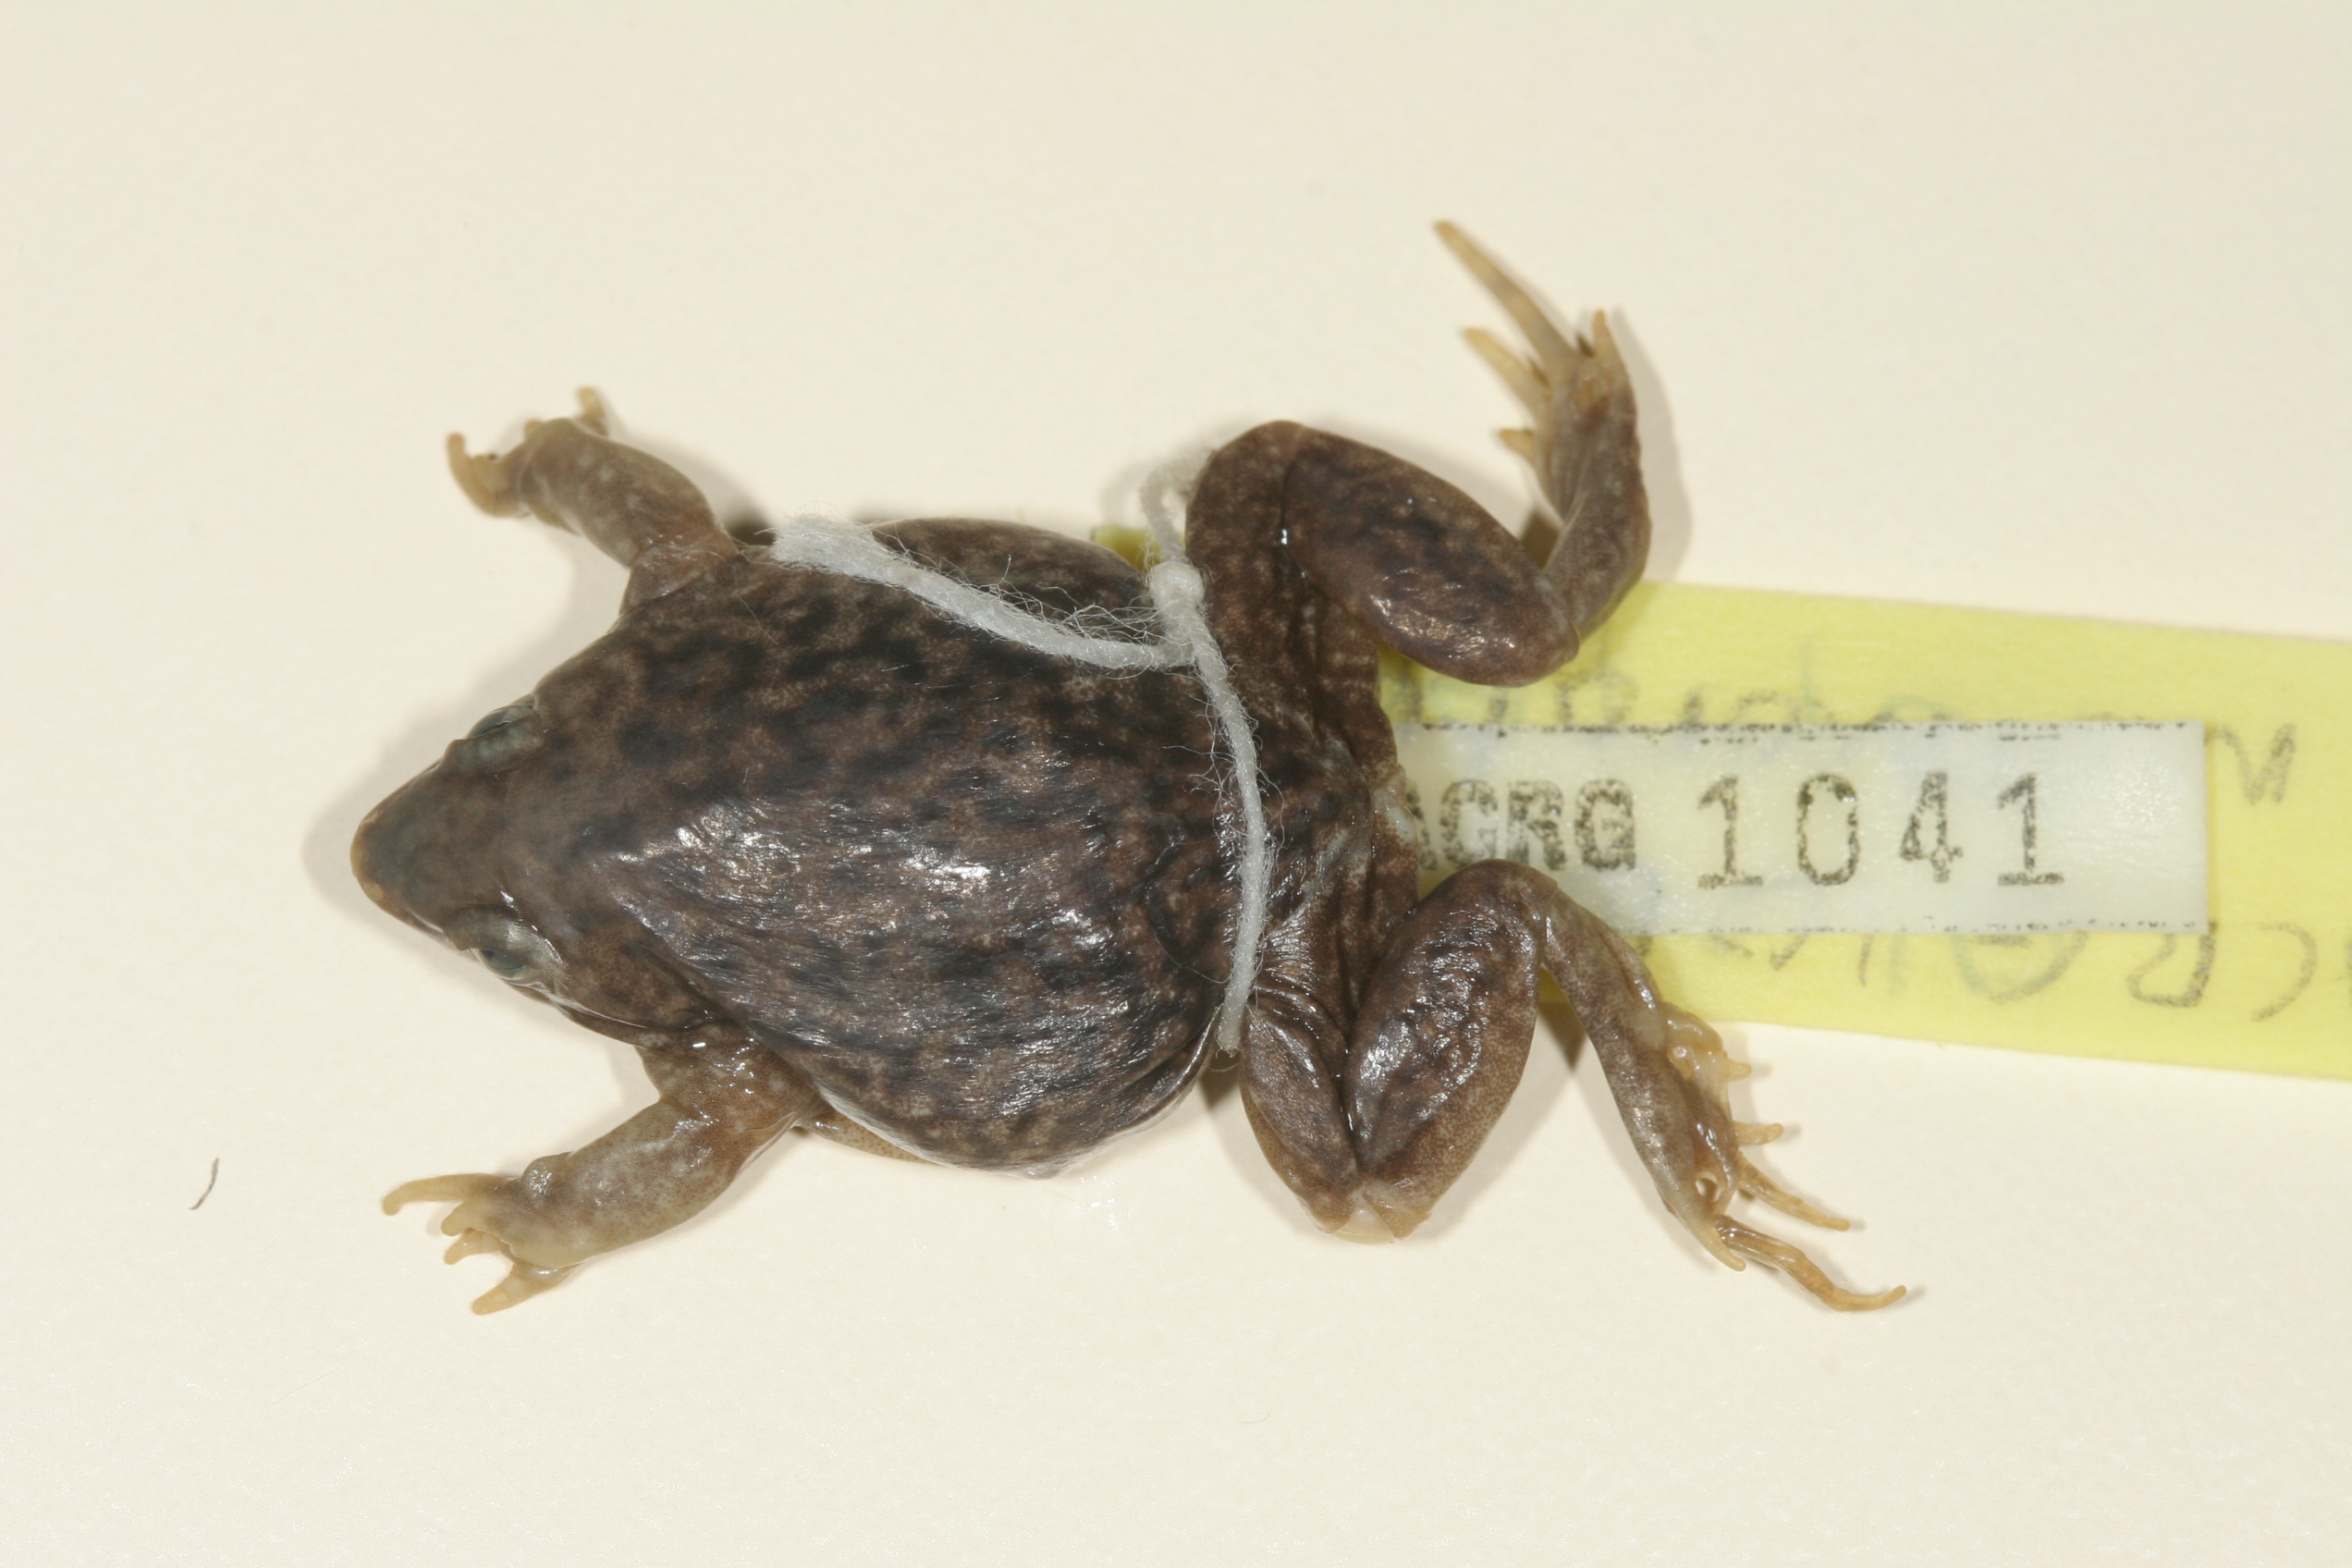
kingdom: Animalia
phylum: Chordata
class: Amphibia
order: Anura
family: Hemisotidae
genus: Hemisus
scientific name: Hemisus marmoratus
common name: Mottled shovel-nosed frog
